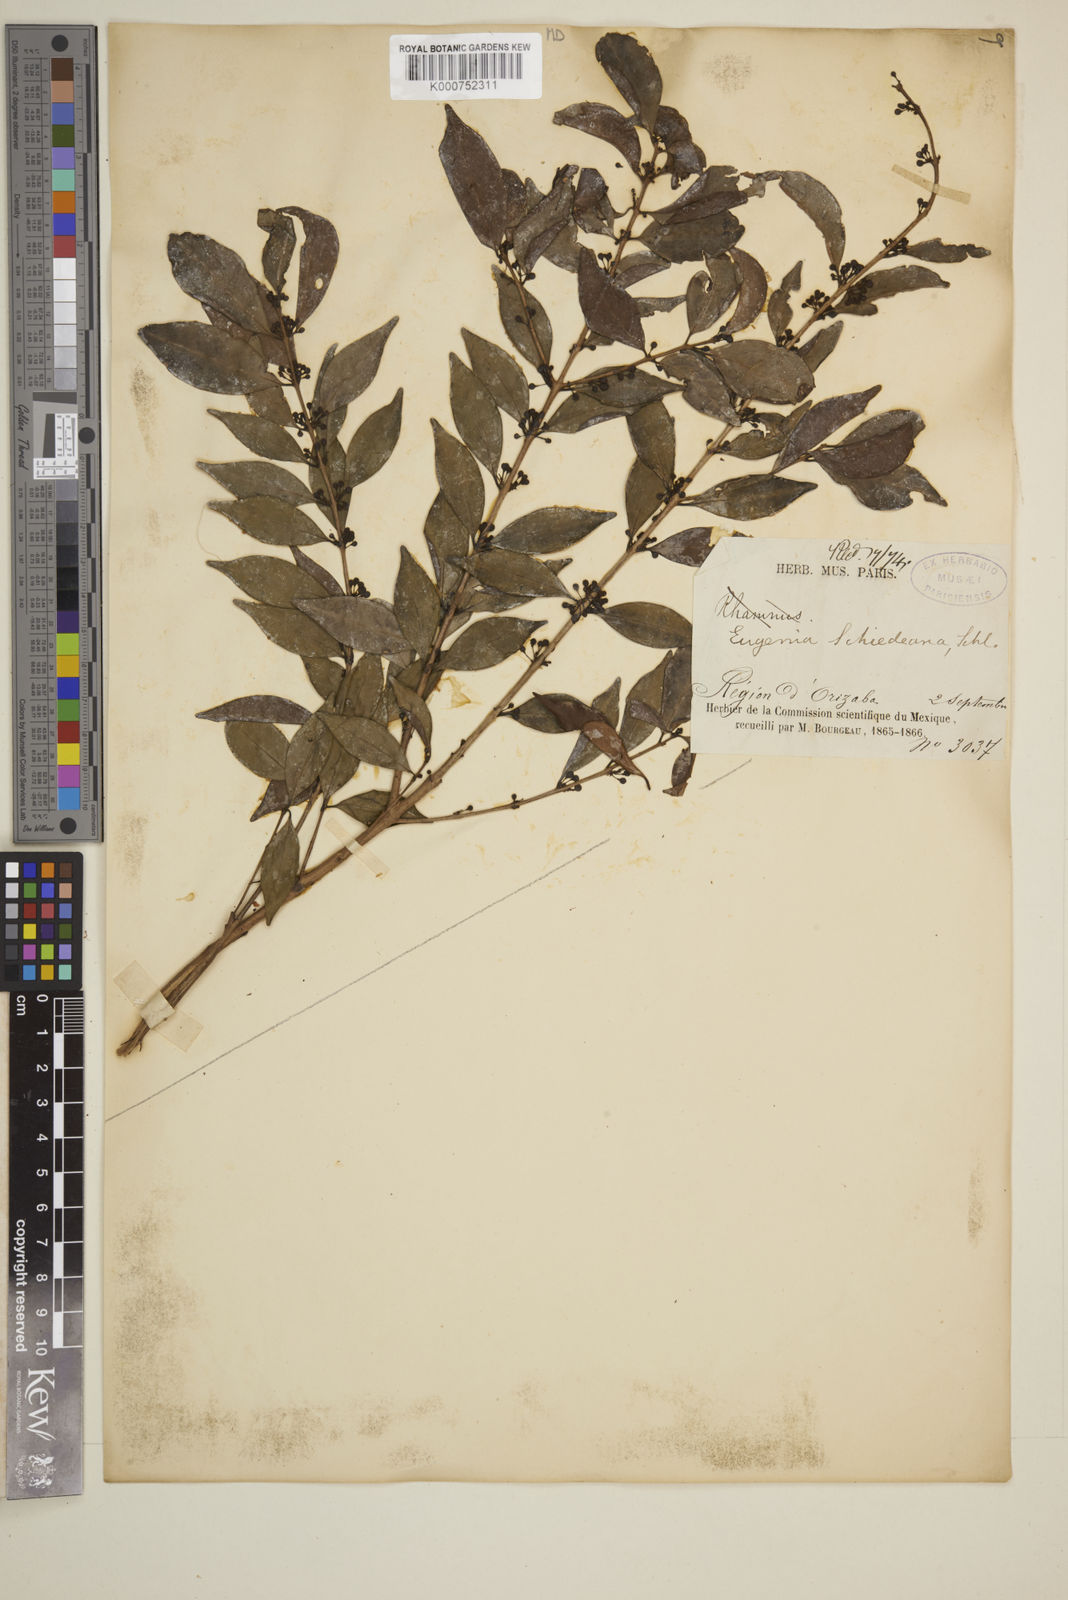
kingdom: Plantae
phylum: Tracheophyta
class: Magnoliopsida
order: Myrtales
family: Myrtaceae
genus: Eugenia
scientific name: Eugenia capuli
